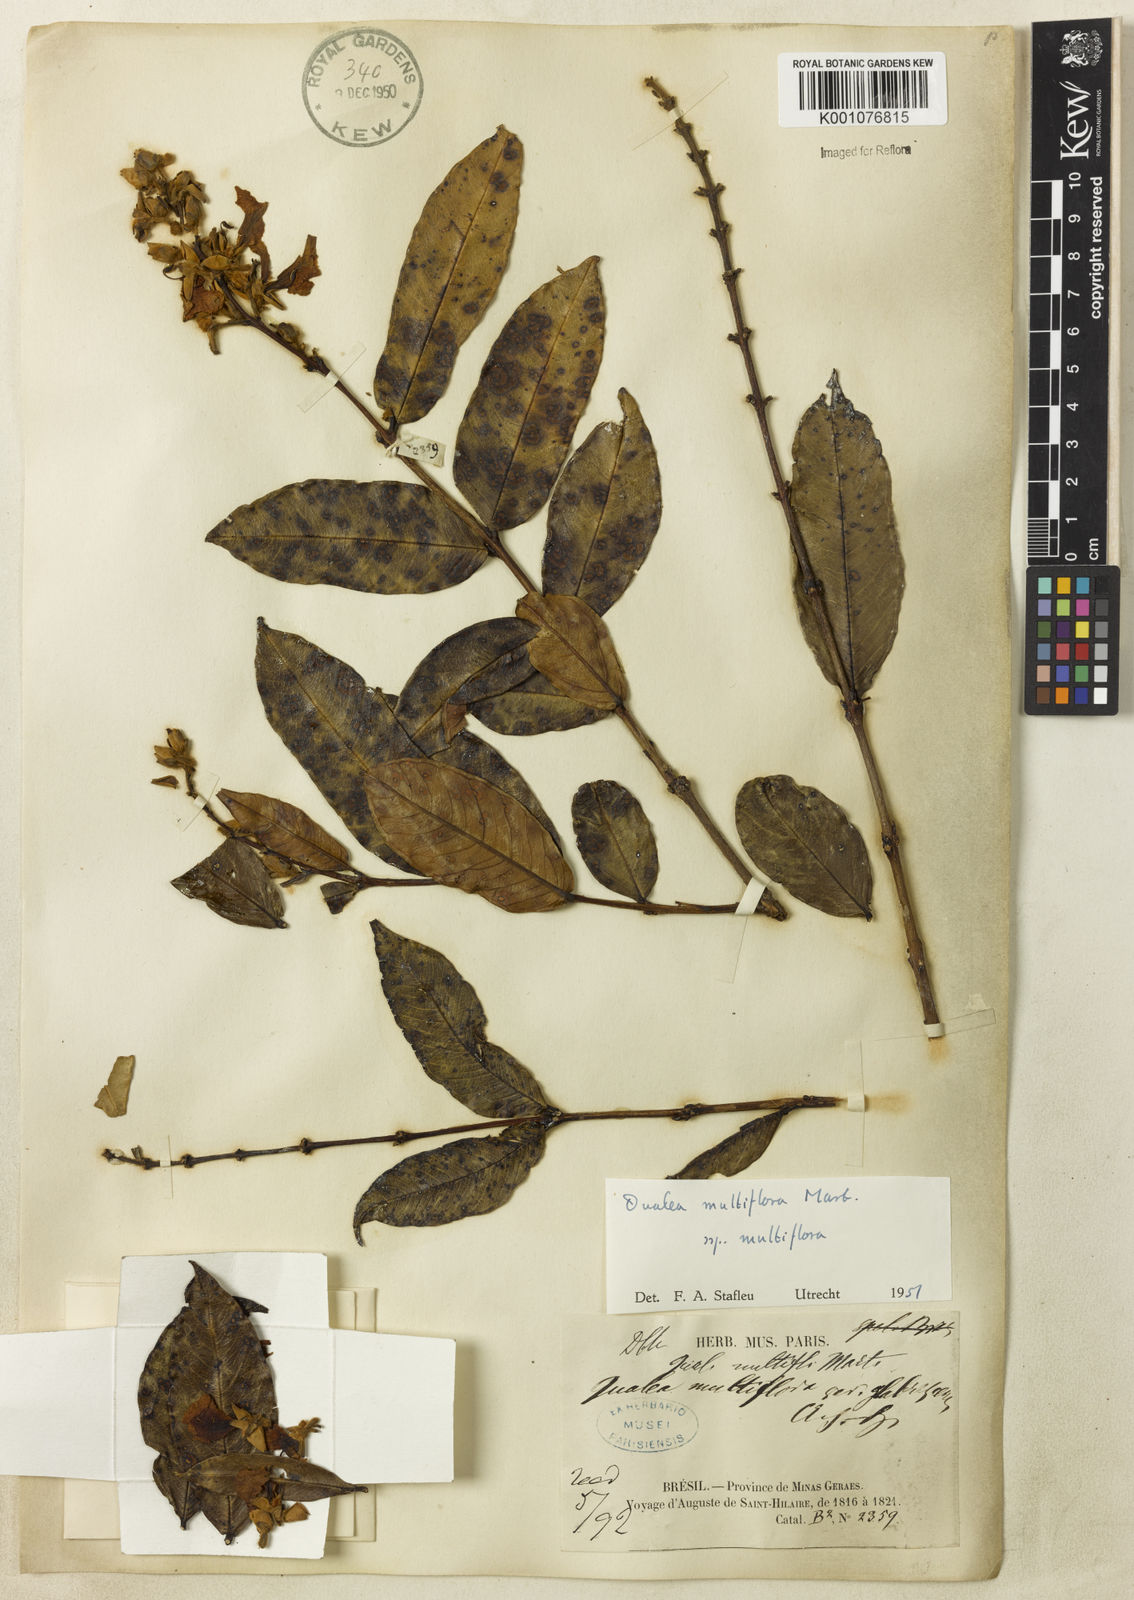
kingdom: Plantae
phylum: Tracheophyta
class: Magnoliopsida
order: Myrtales
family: Vochysiaceae
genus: Qualea
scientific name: Qualea multiflora
